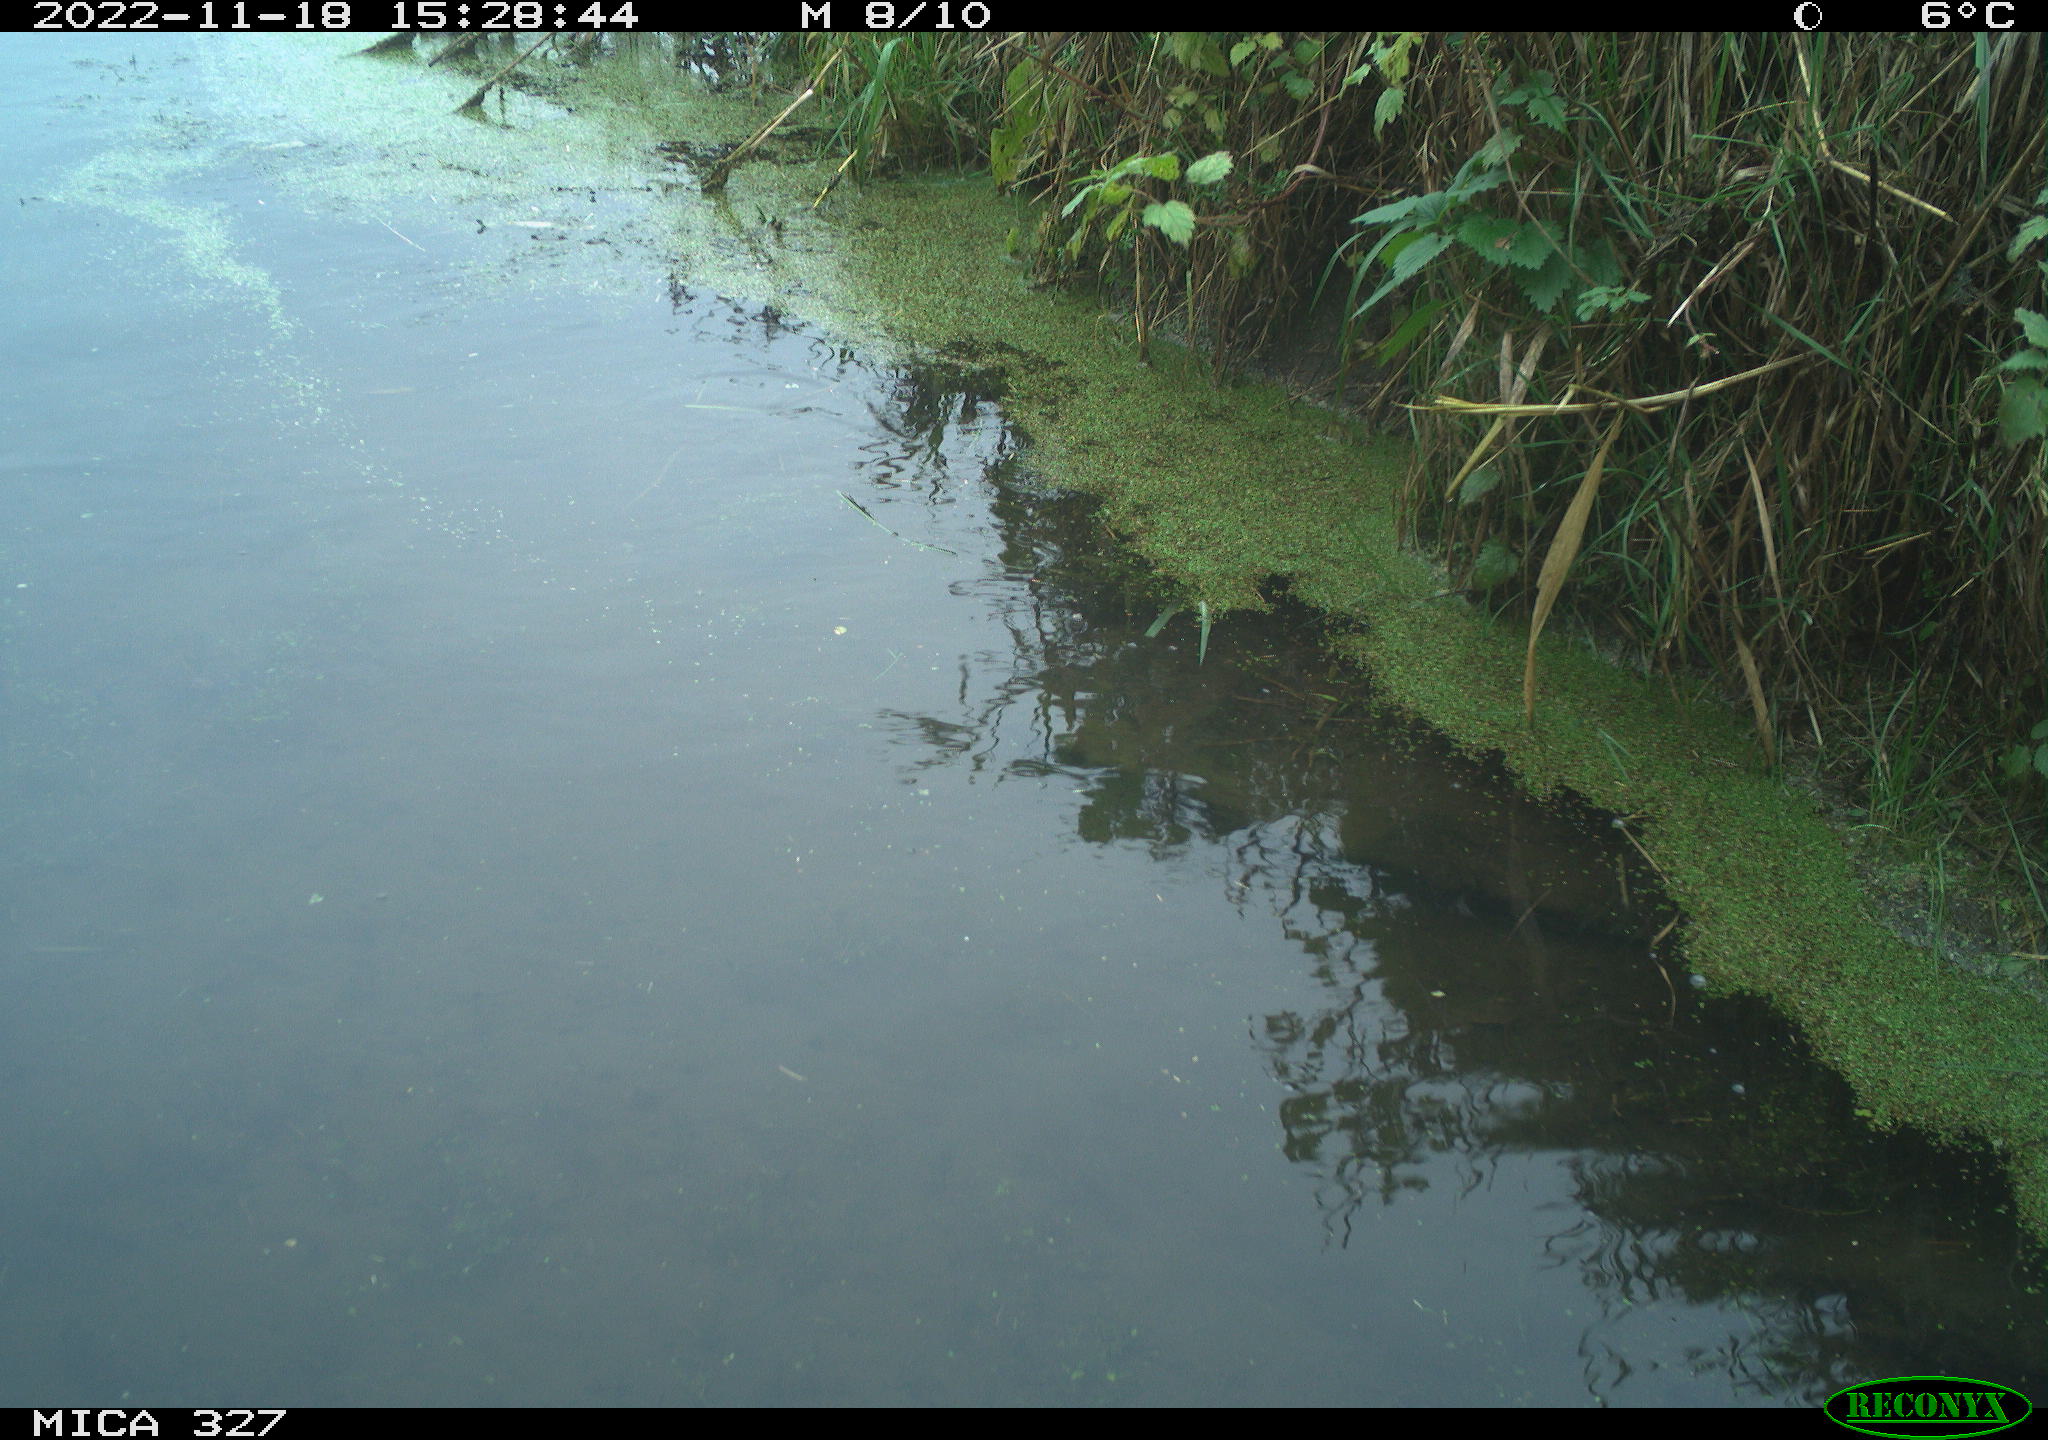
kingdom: Animalia
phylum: Chordata
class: Aves
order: Gruiformes
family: Rallidae
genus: Gallinula
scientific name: Gallinula chloropus
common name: Common moorhen
